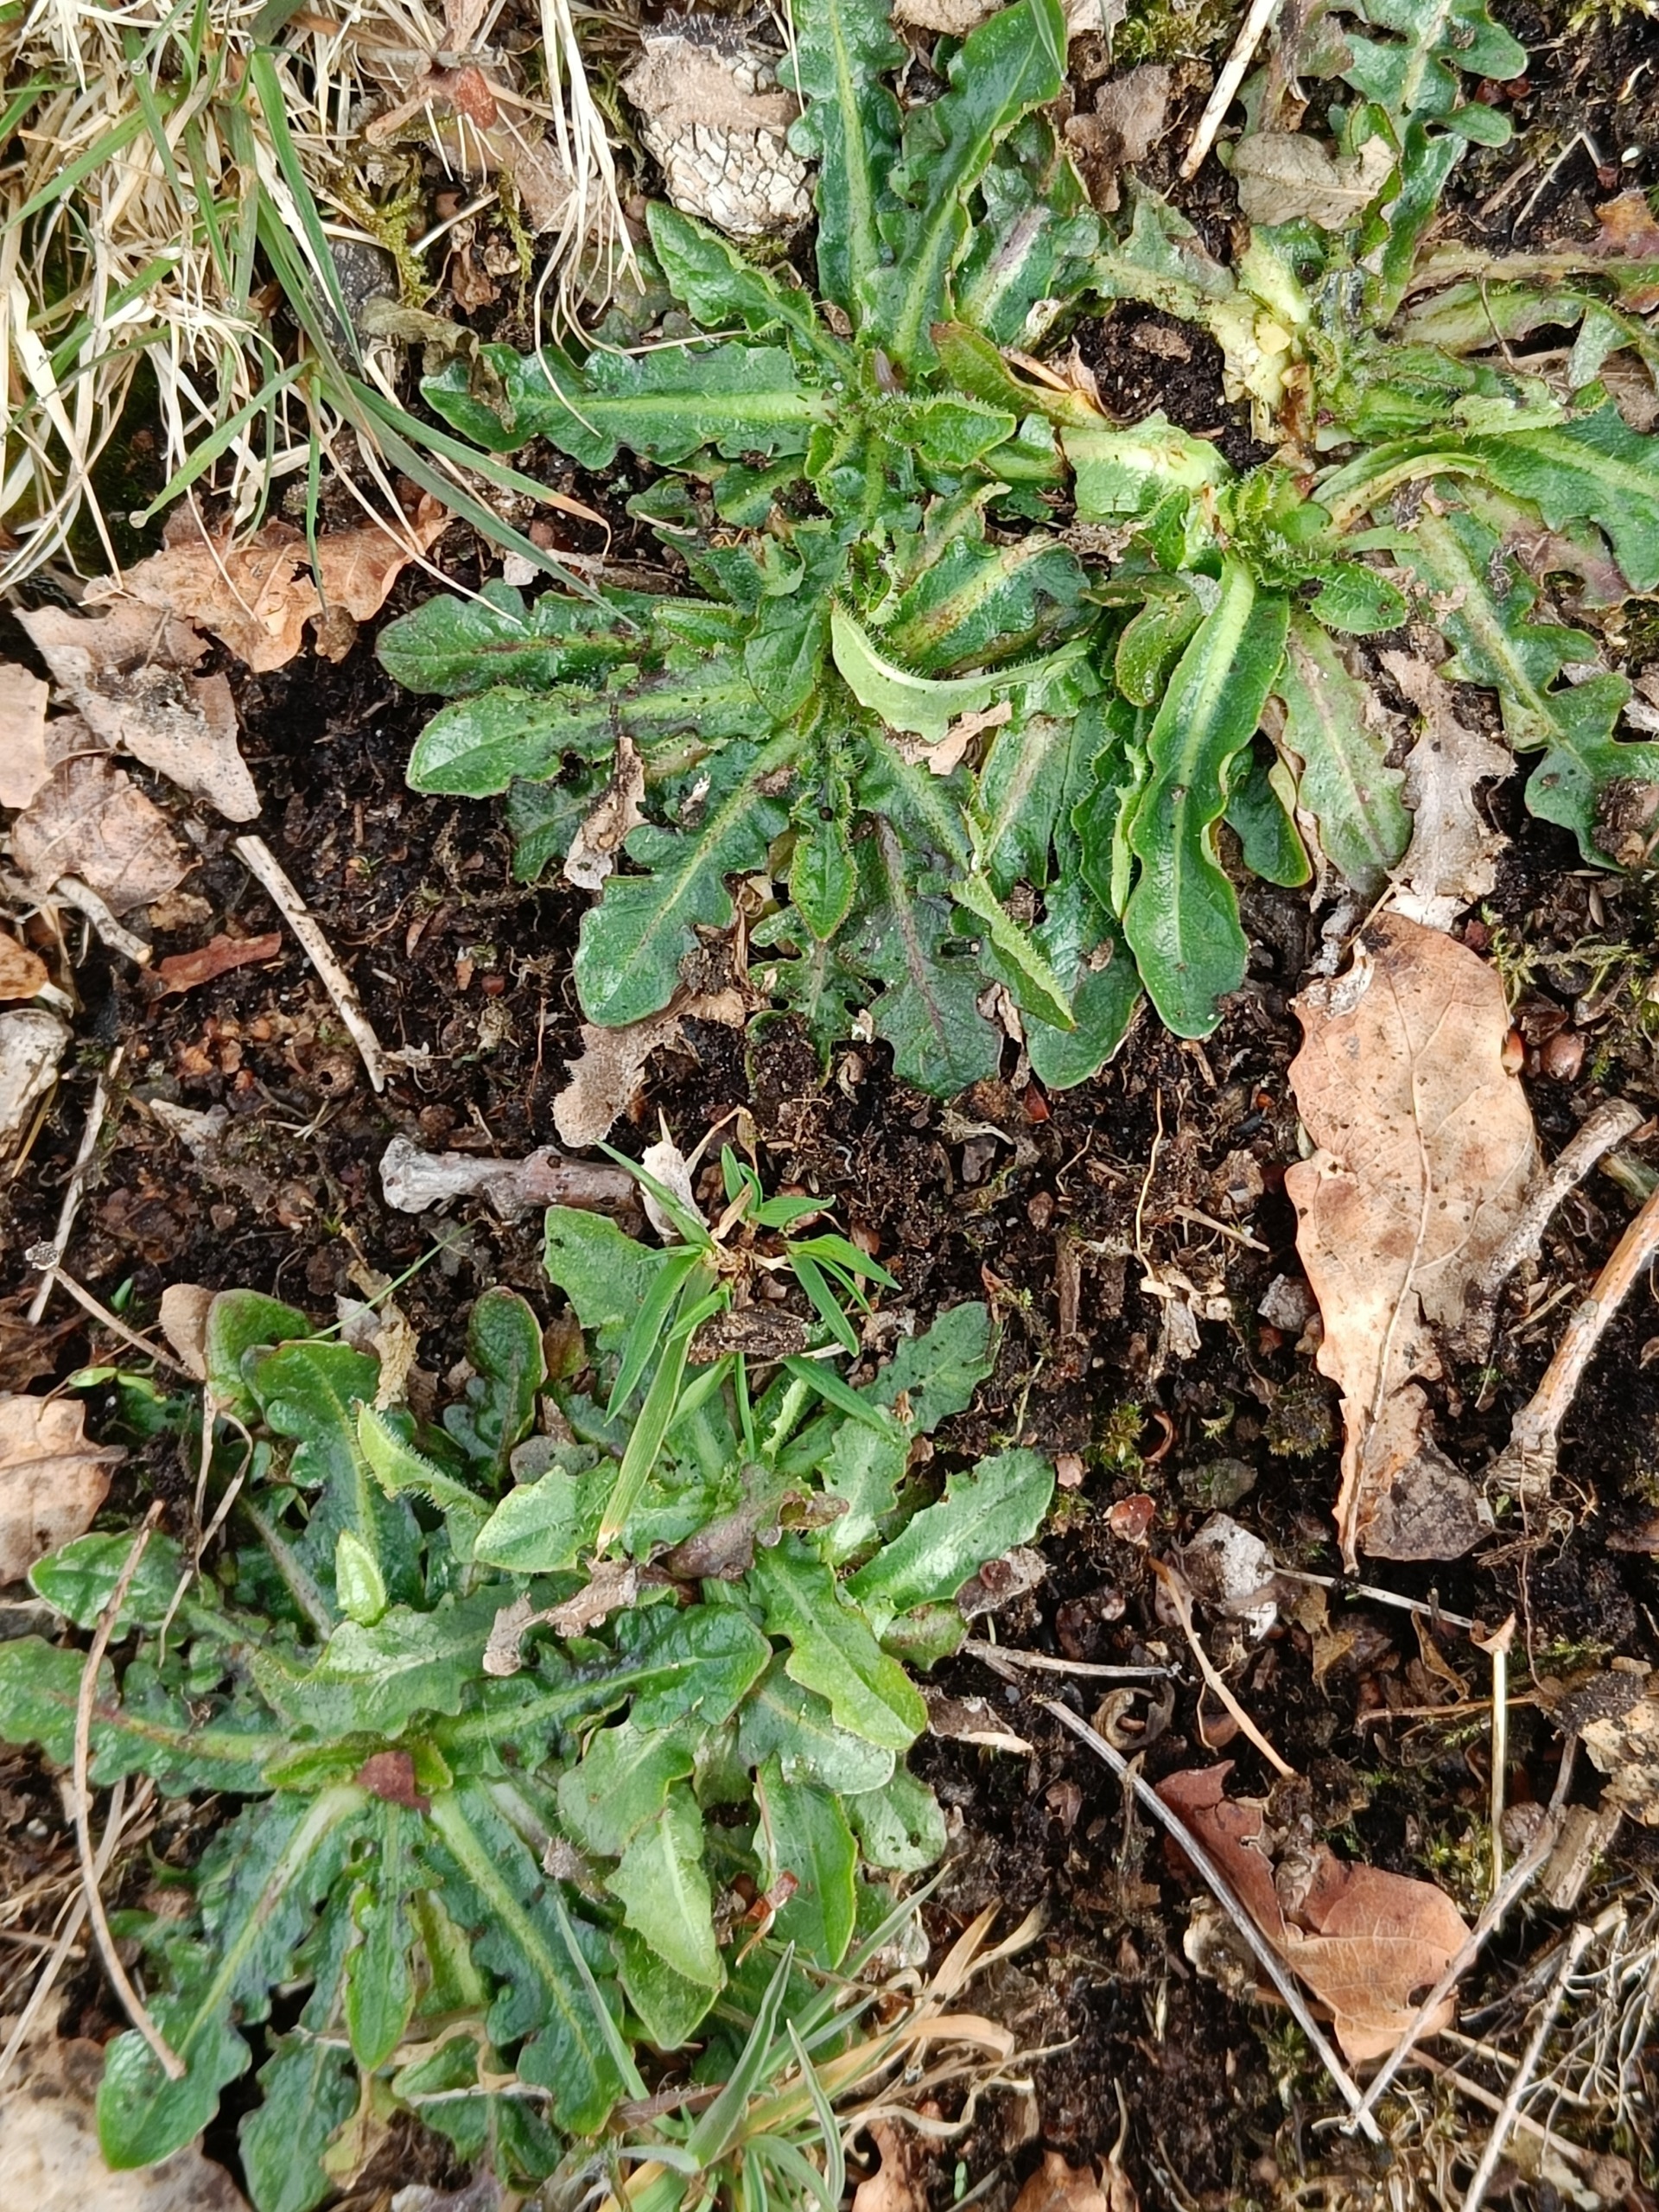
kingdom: Plantae
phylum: Tracheophyta
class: Magnoliopsida
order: Asterales
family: Asteraceae
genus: Hypochaeris
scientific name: Hypochaeris radicata
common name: Almindelig kongepen
